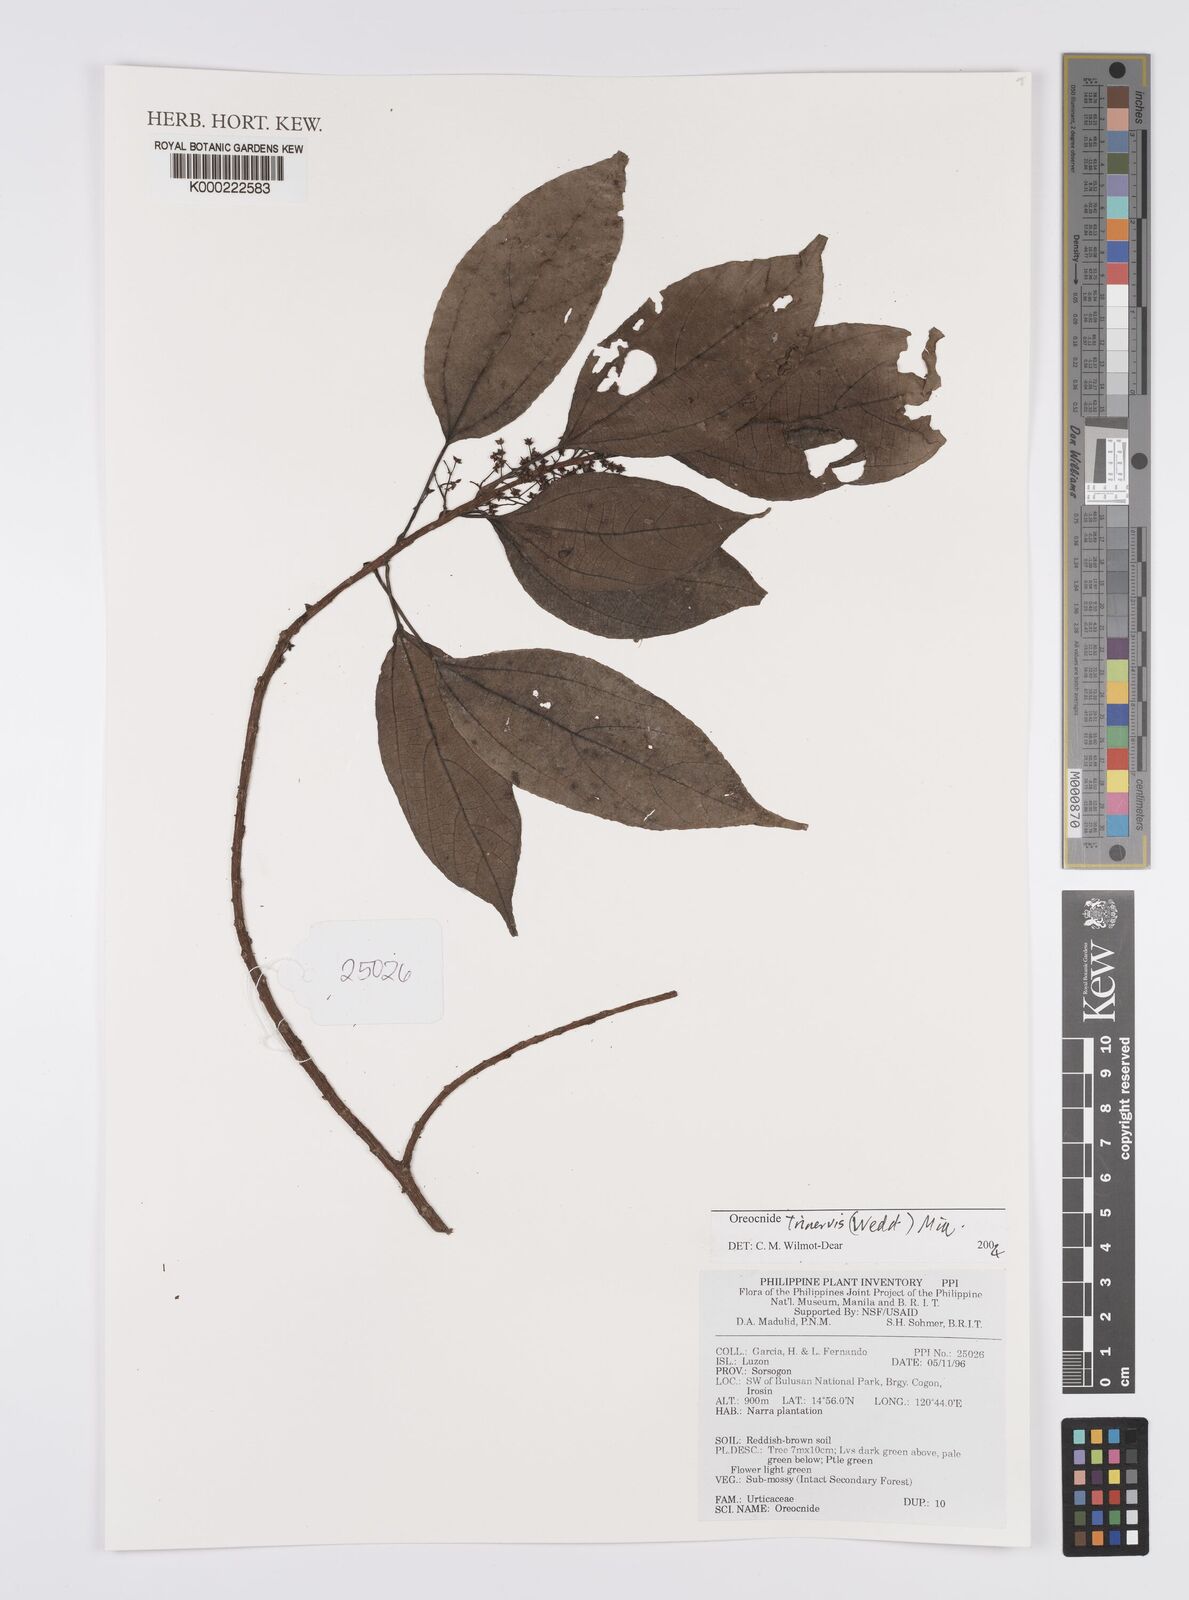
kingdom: Plantae
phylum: Tracheophyta
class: Magnoliopsida
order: Rosales
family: Urticaceae
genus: Oreocnide
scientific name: Oreocnide trinervis
